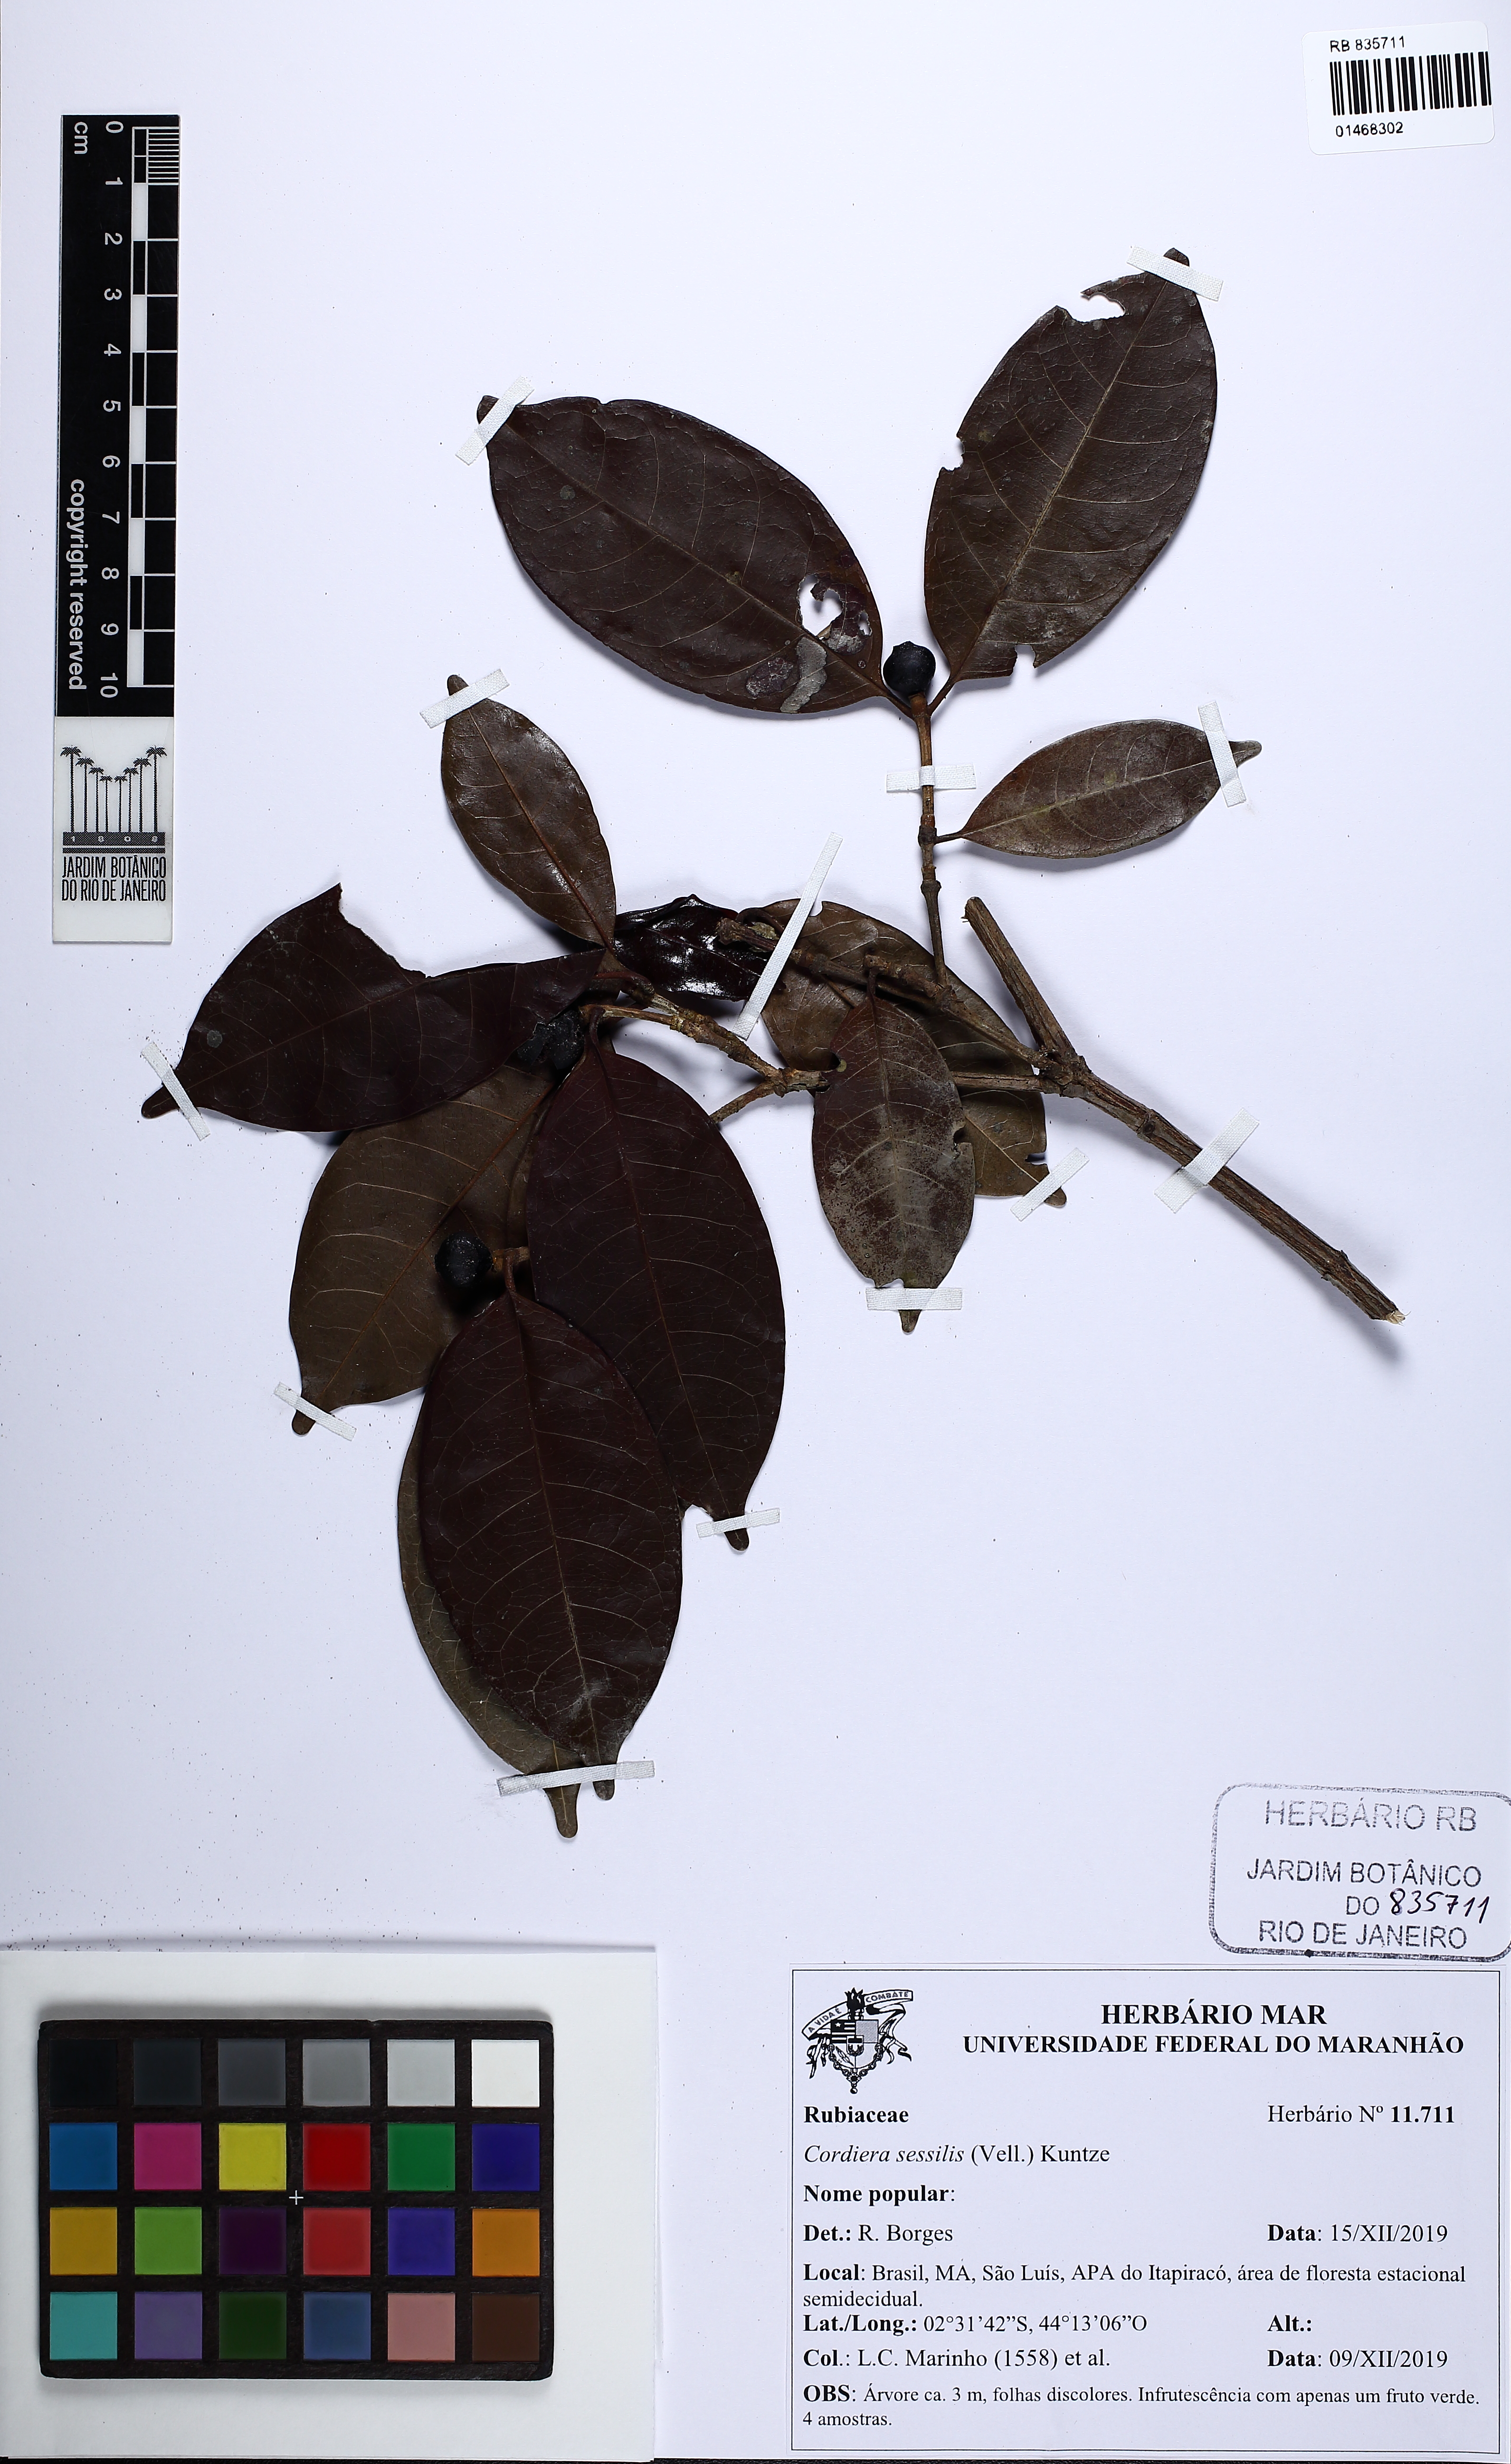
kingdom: Plantae
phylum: Tracheophyta
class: Magnoliopsida
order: Gentianales
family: Rubiaceae
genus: Cordiera
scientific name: Cordiera sessilis
